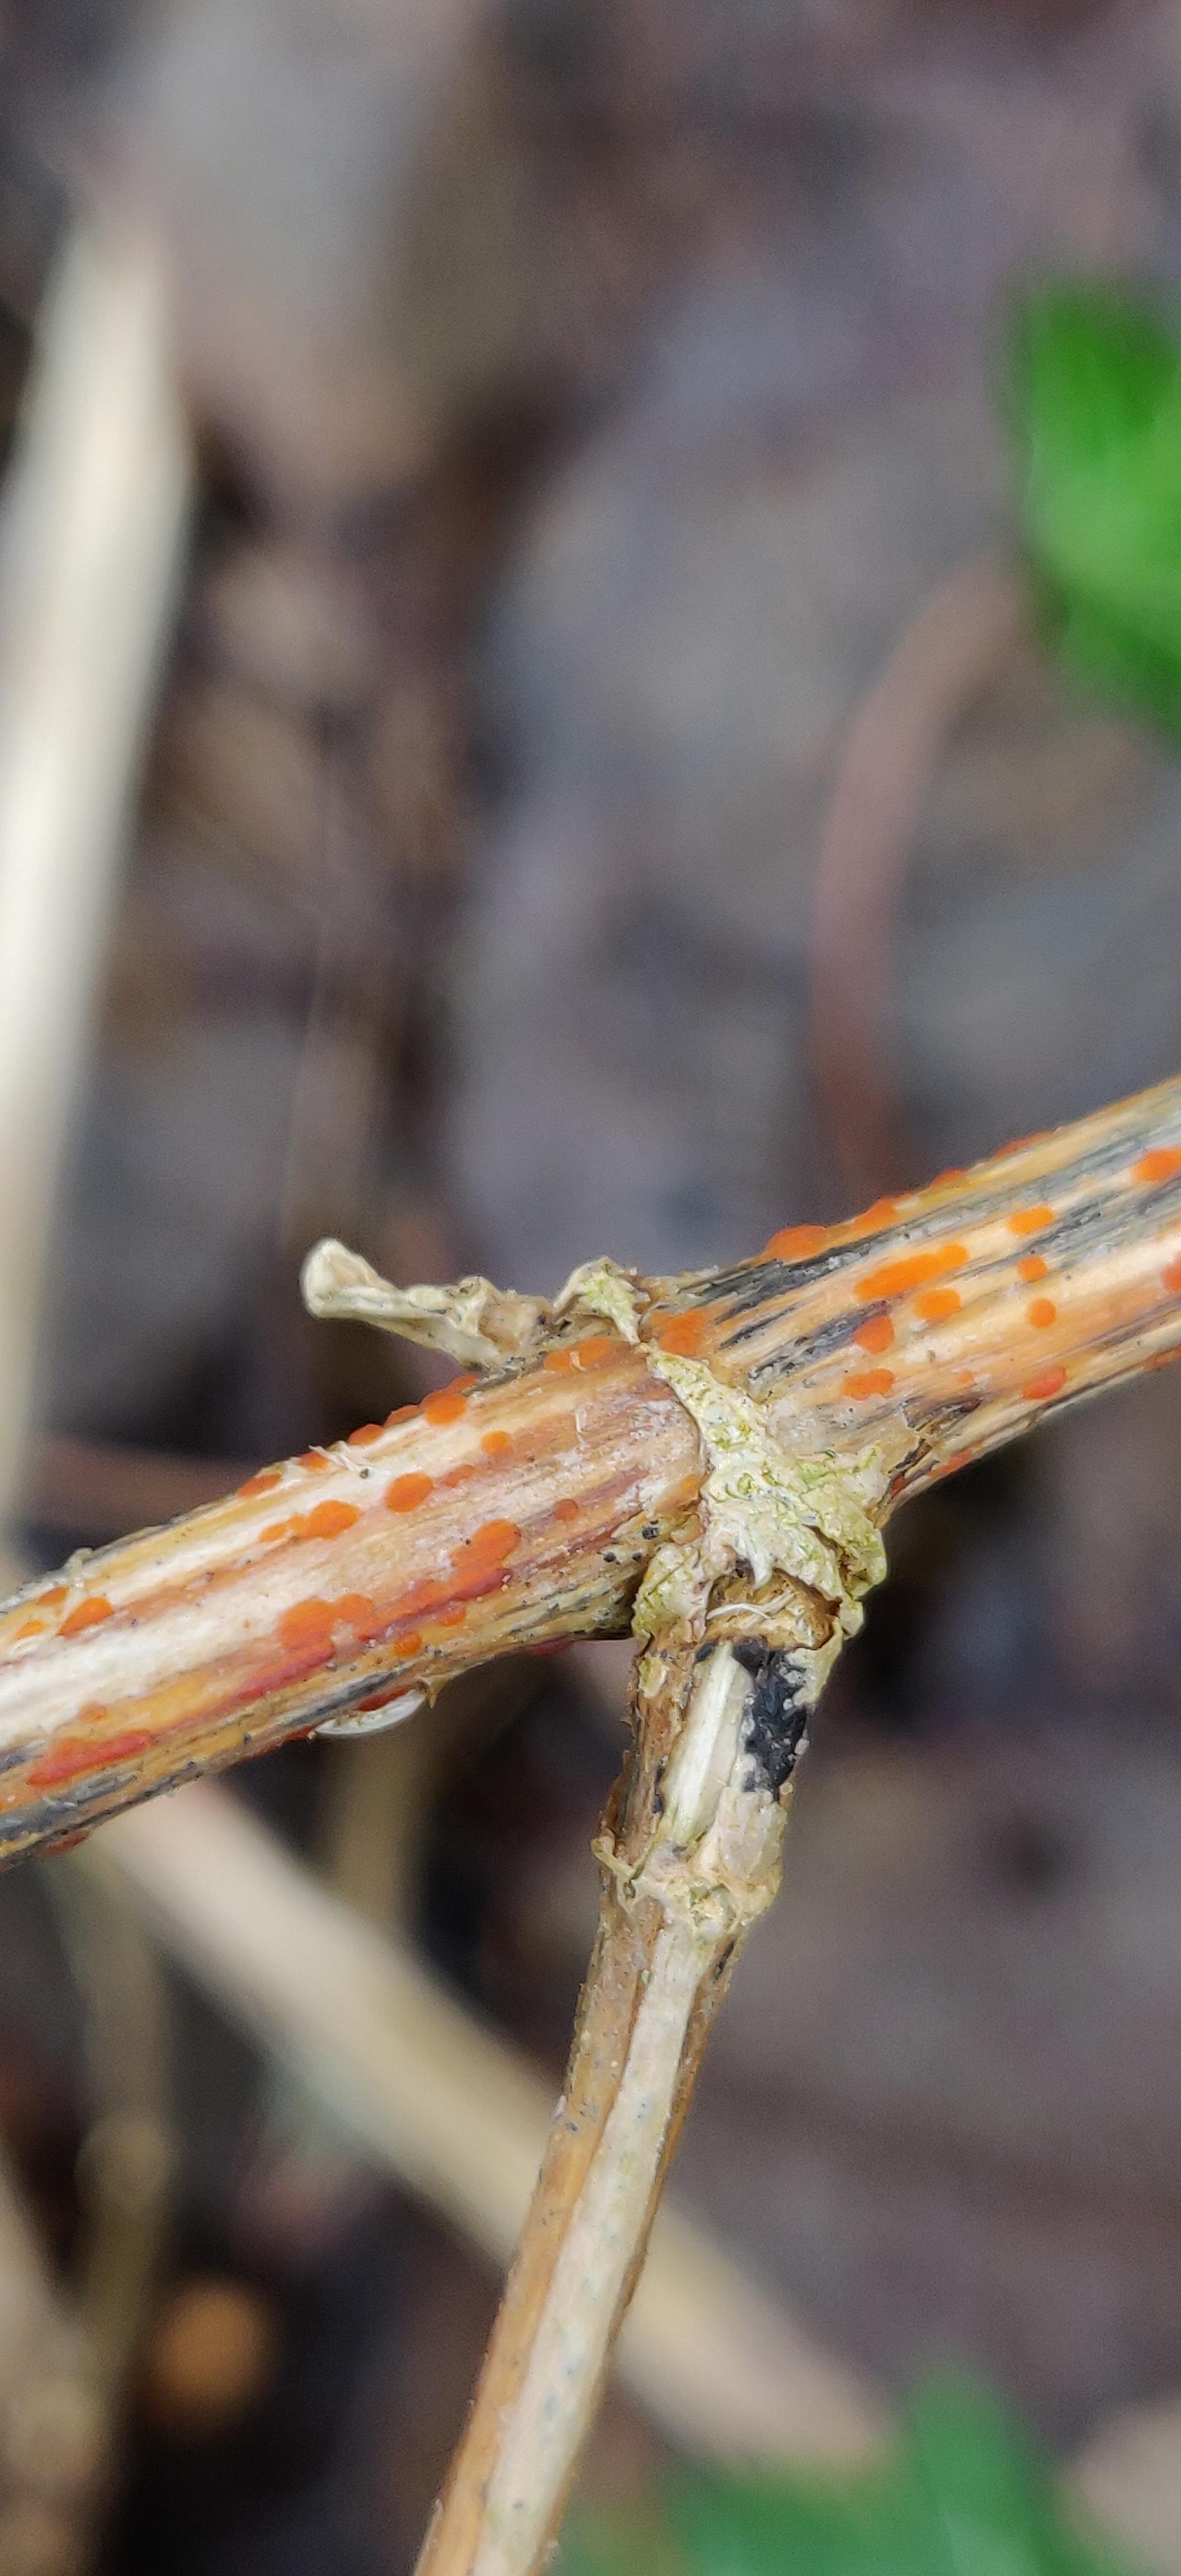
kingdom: Fungi
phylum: Ascomycota
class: Leotiomycetes
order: Helotiales
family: Calloriaceae
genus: Calloria
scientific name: Calloria urticae
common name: nælde-orangeskive
